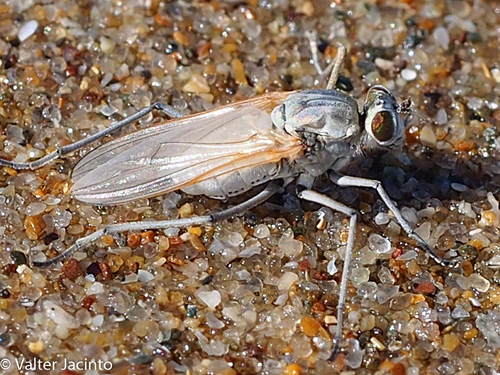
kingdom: Animalia
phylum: Arthropoda
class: Insecta
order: Diptera
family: Dolichopodidae
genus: Anahydrophorus
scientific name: Anahydrophorus cinereus
